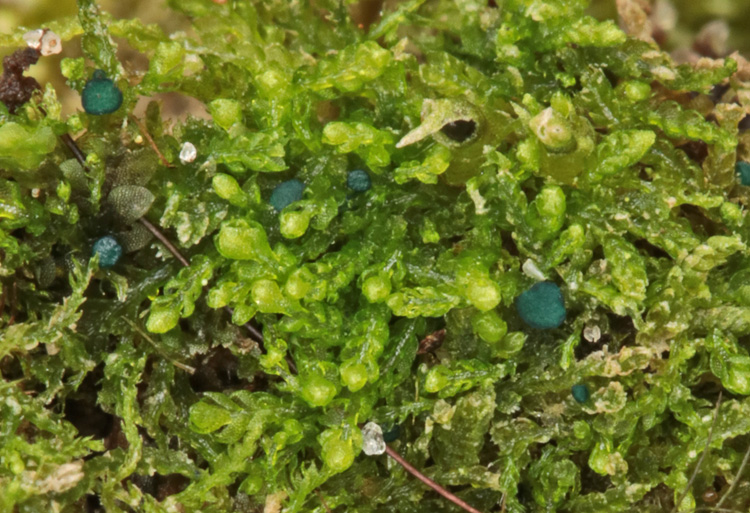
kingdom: Fungi
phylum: Ascomycota
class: Leotiomycetes
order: Leotiales
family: Mniaeciaceae
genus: Mniaecia
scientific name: Mniaecia jungermanniae
